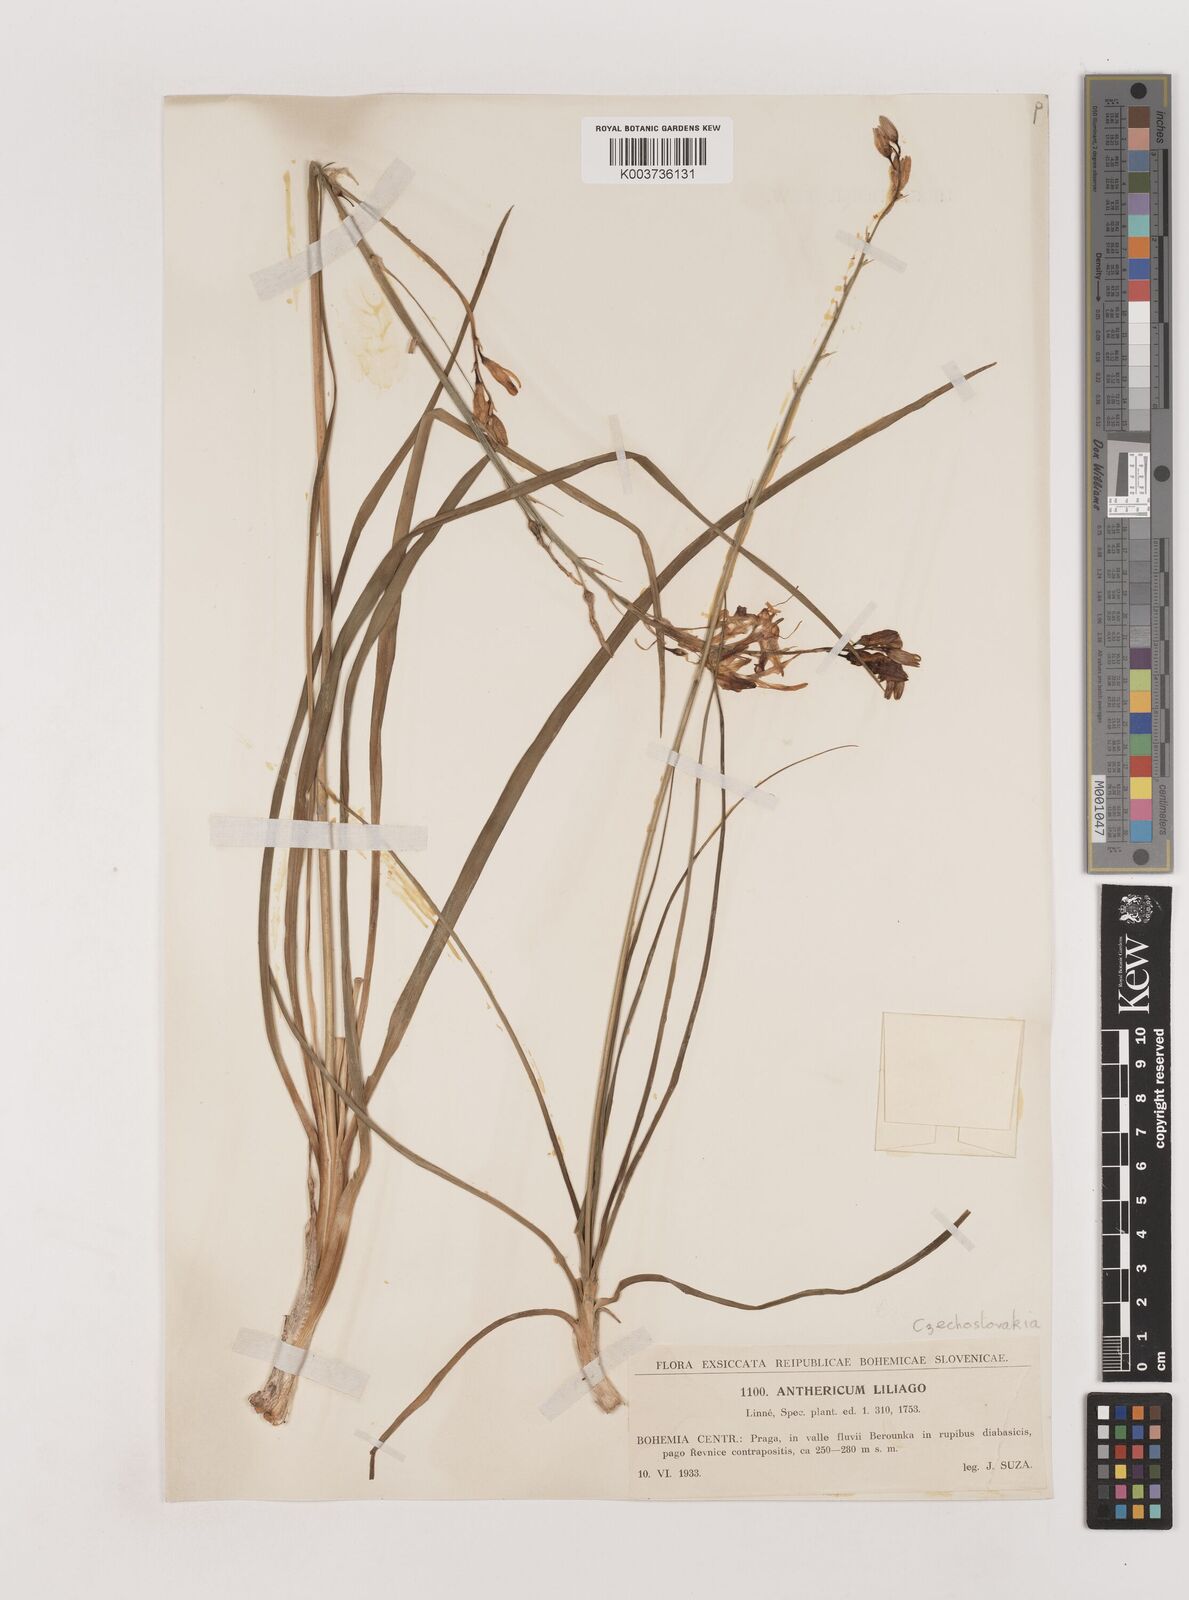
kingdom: Plantae
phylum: Tracheophyta
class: Liliopsida
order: Asparagales
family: Asparagaceae
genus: Anthericum
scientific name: Anthericum liliago
